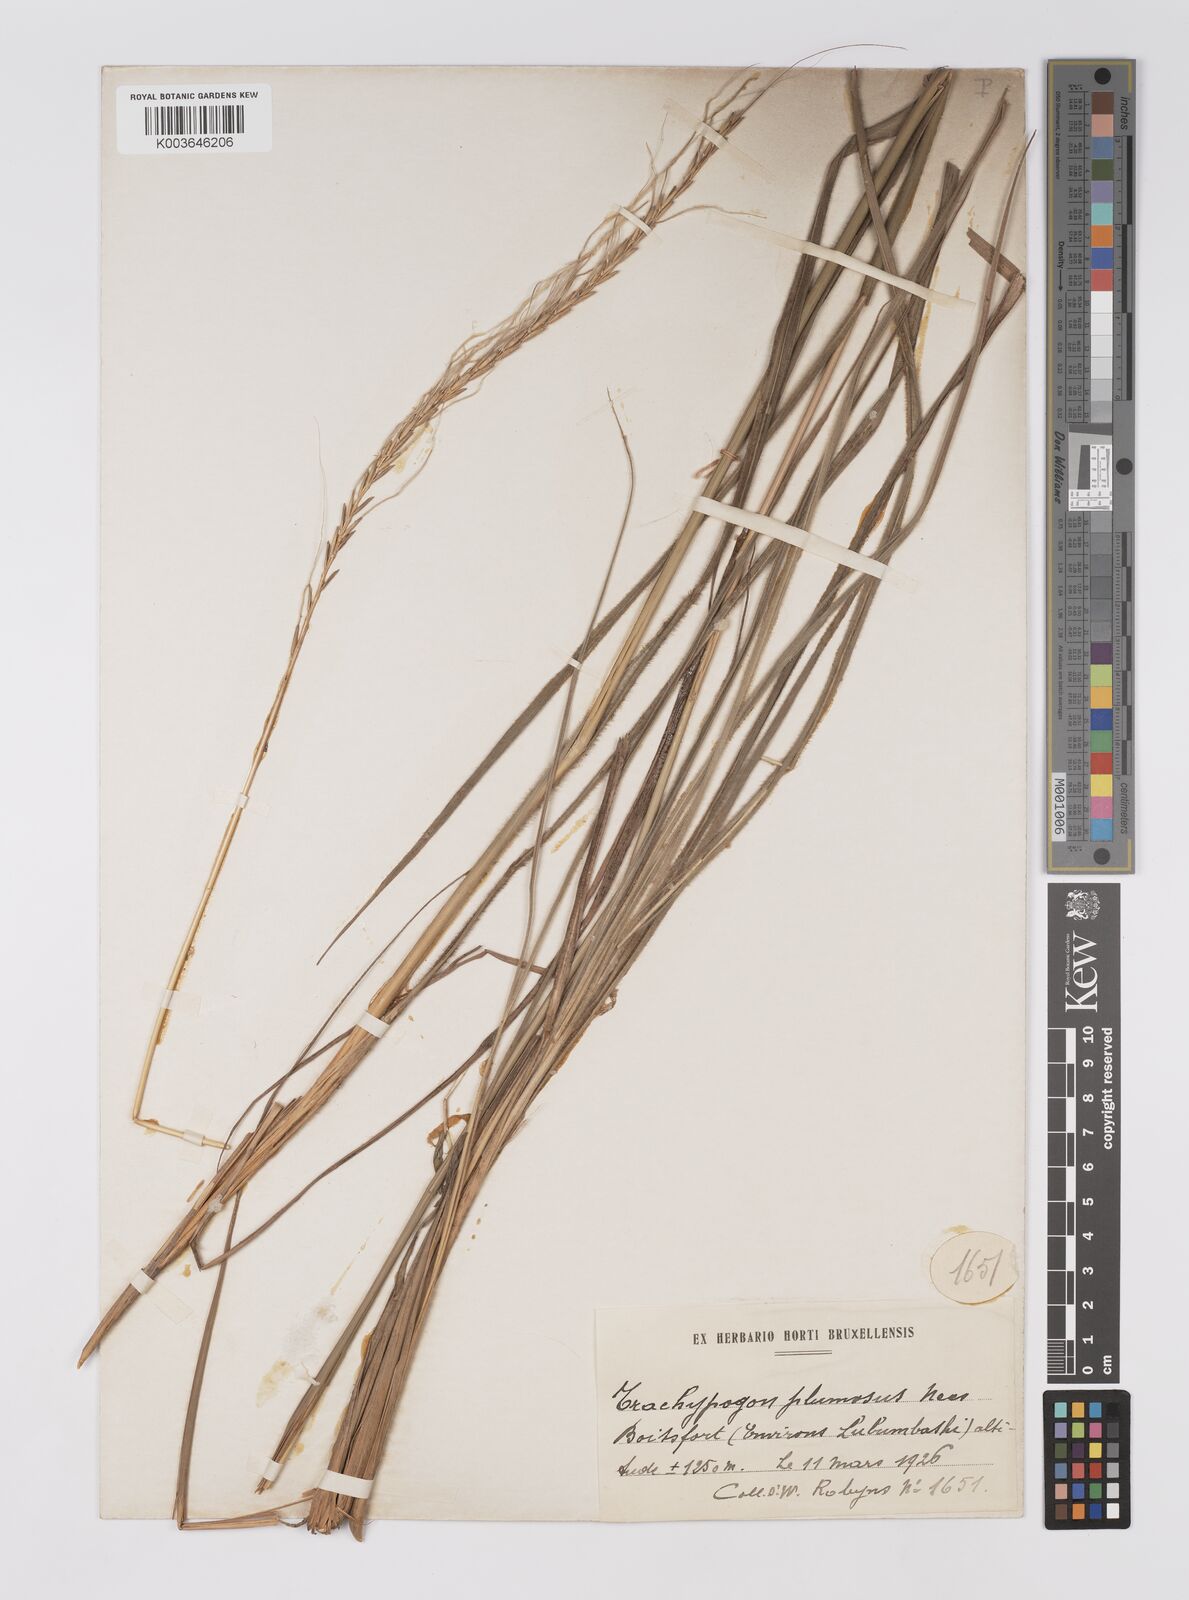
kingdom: Plantae
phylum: Tracheophyta
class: Liliopsida
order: Poales
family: Poaceae
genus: Trachypogon
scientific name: Trachypogon spicatus
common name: Crinkle-awn
